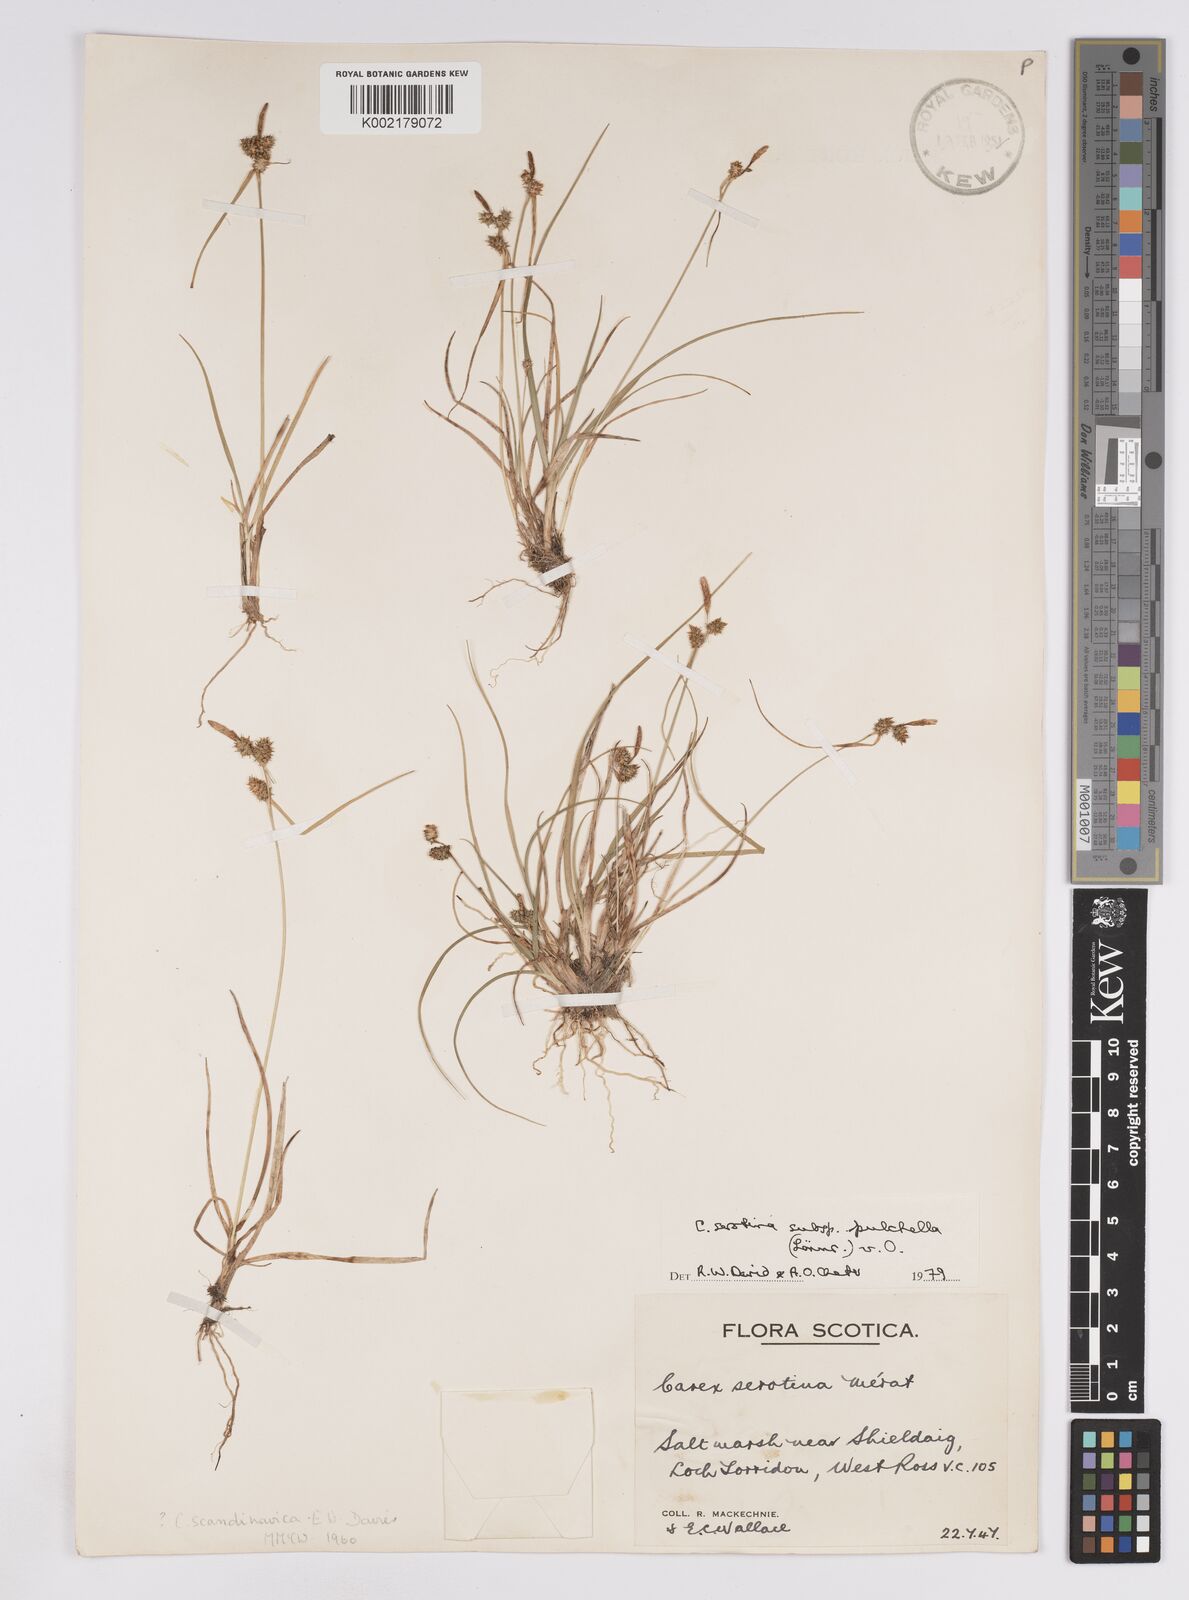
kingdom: Plantae
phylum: Tracheophyta
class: Liliopsida
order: Poales
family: Cyperaceae
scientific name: Cyperaceae
